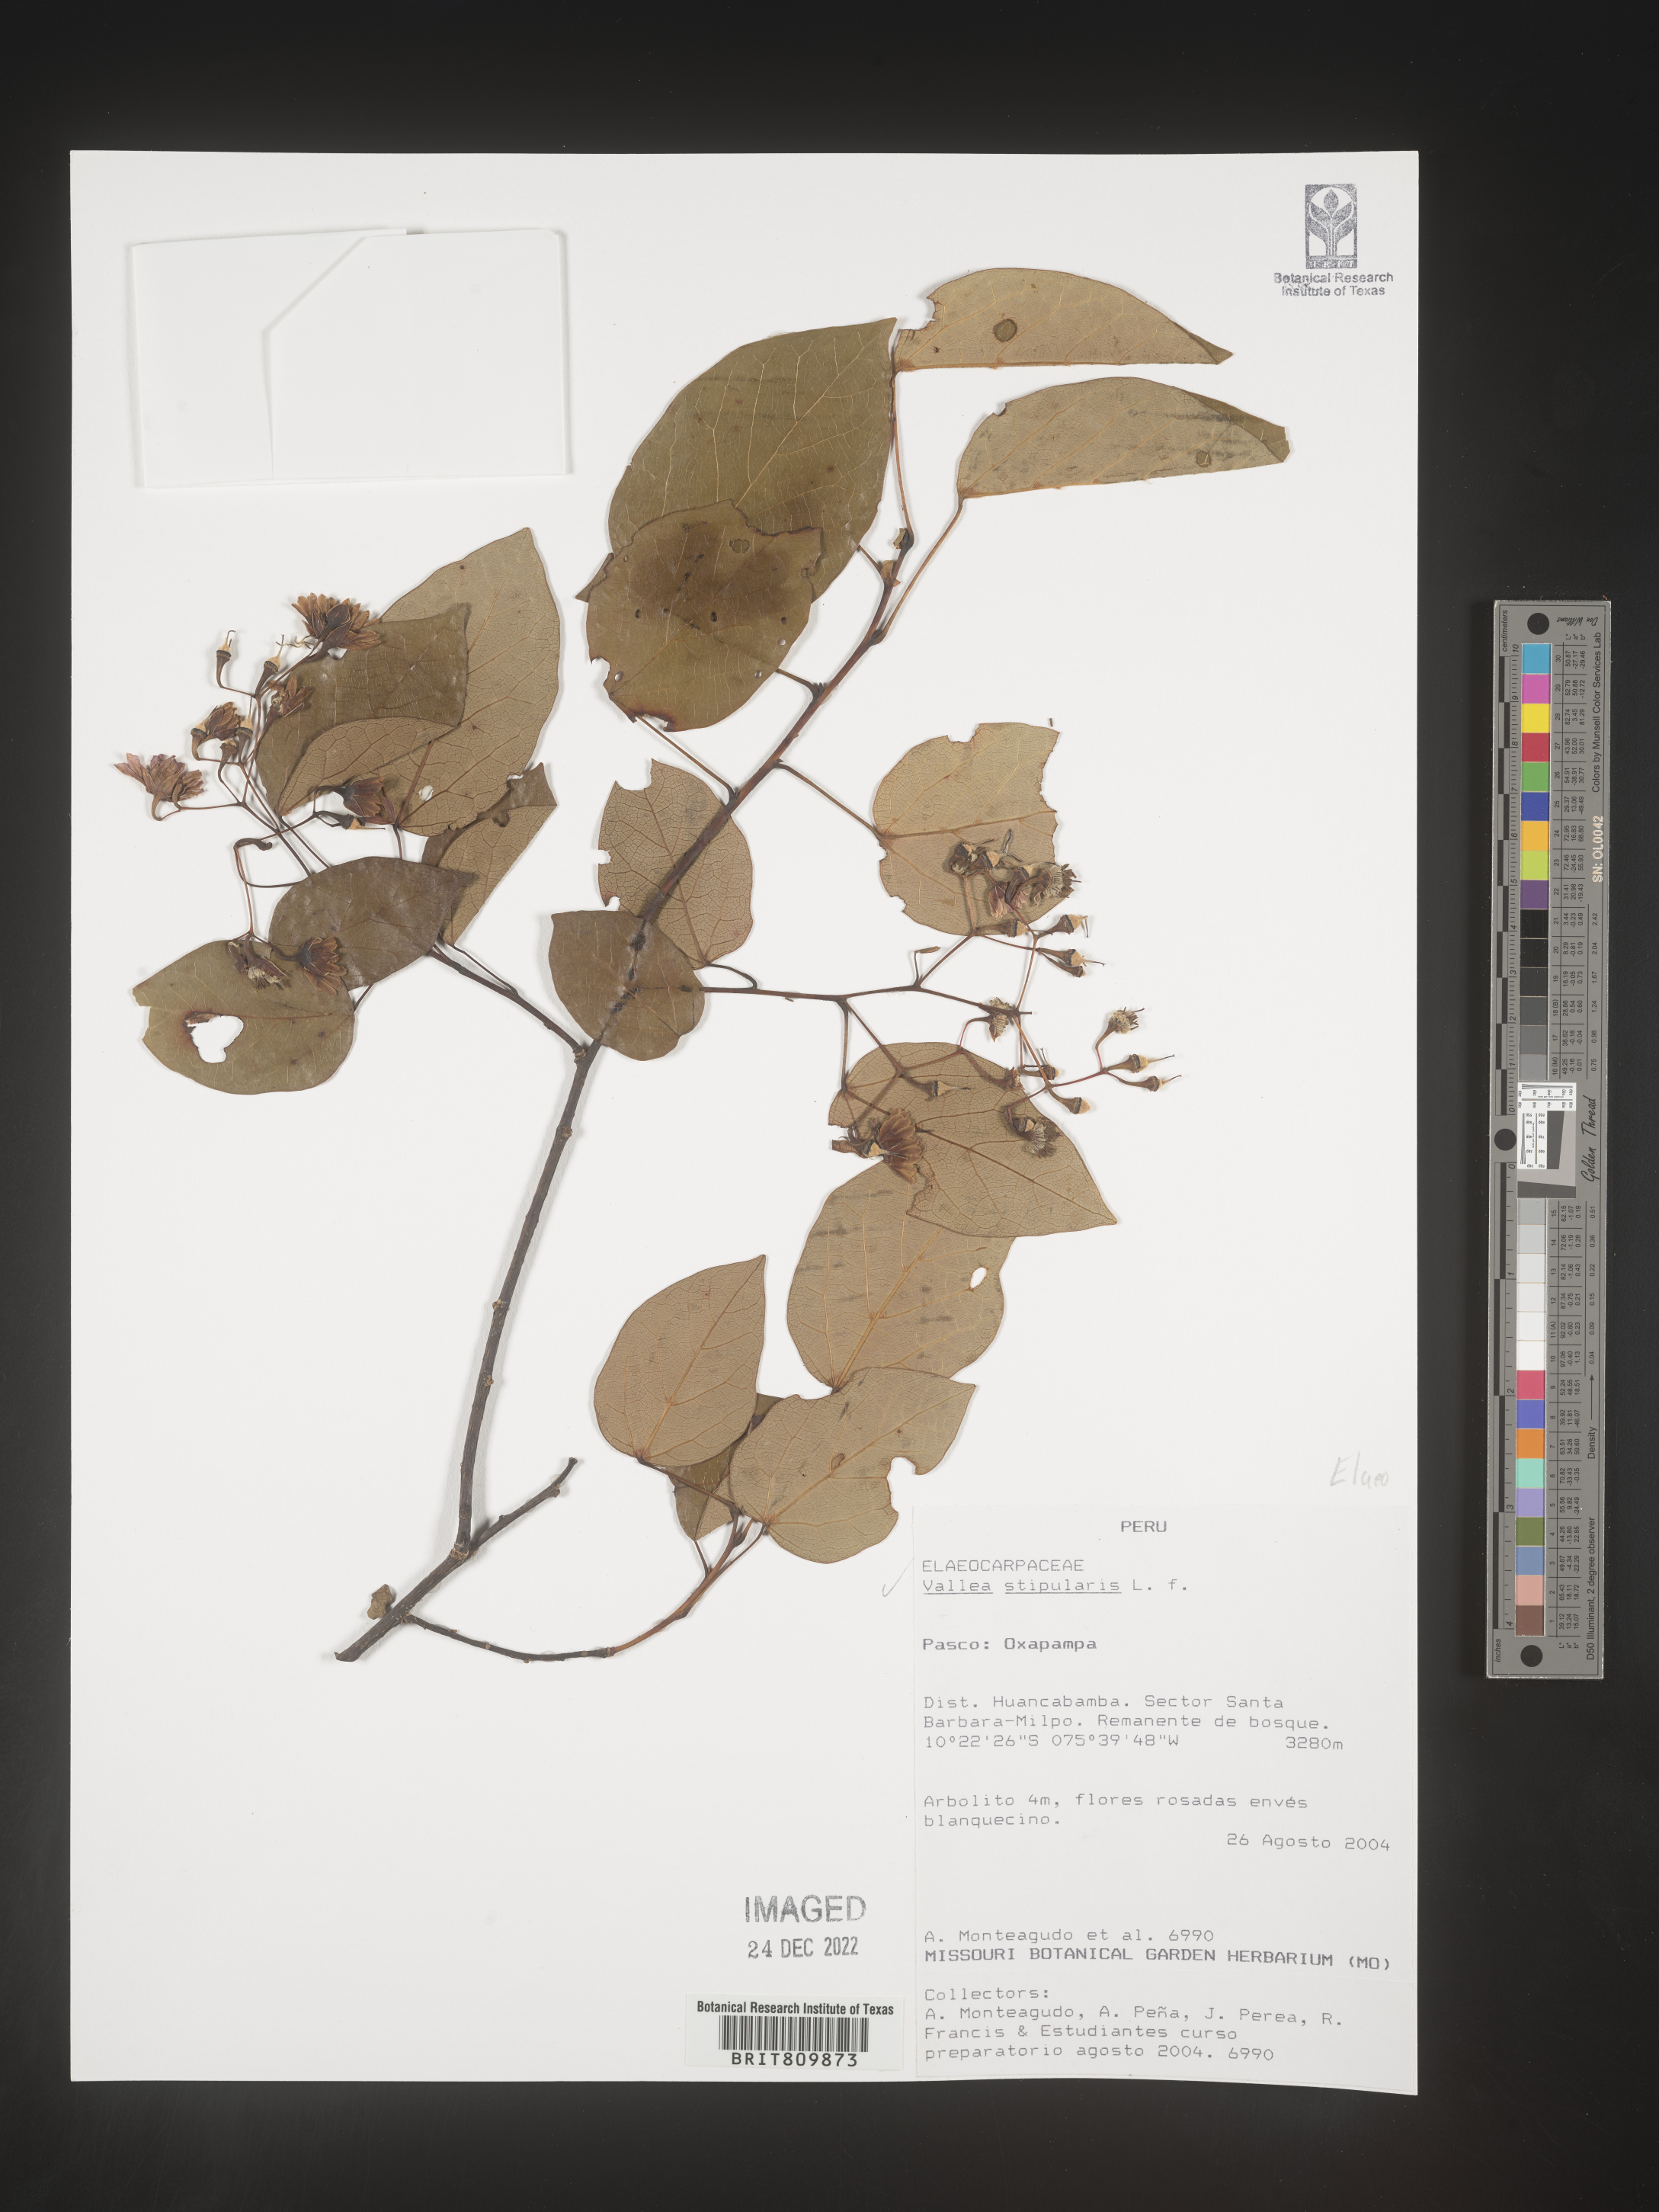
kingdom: Plantae
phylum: Tracheophyta
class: Magnoliopsida
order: Oxalidales
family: Elaeocarpaceae
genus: Vallea
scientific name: Vallea
